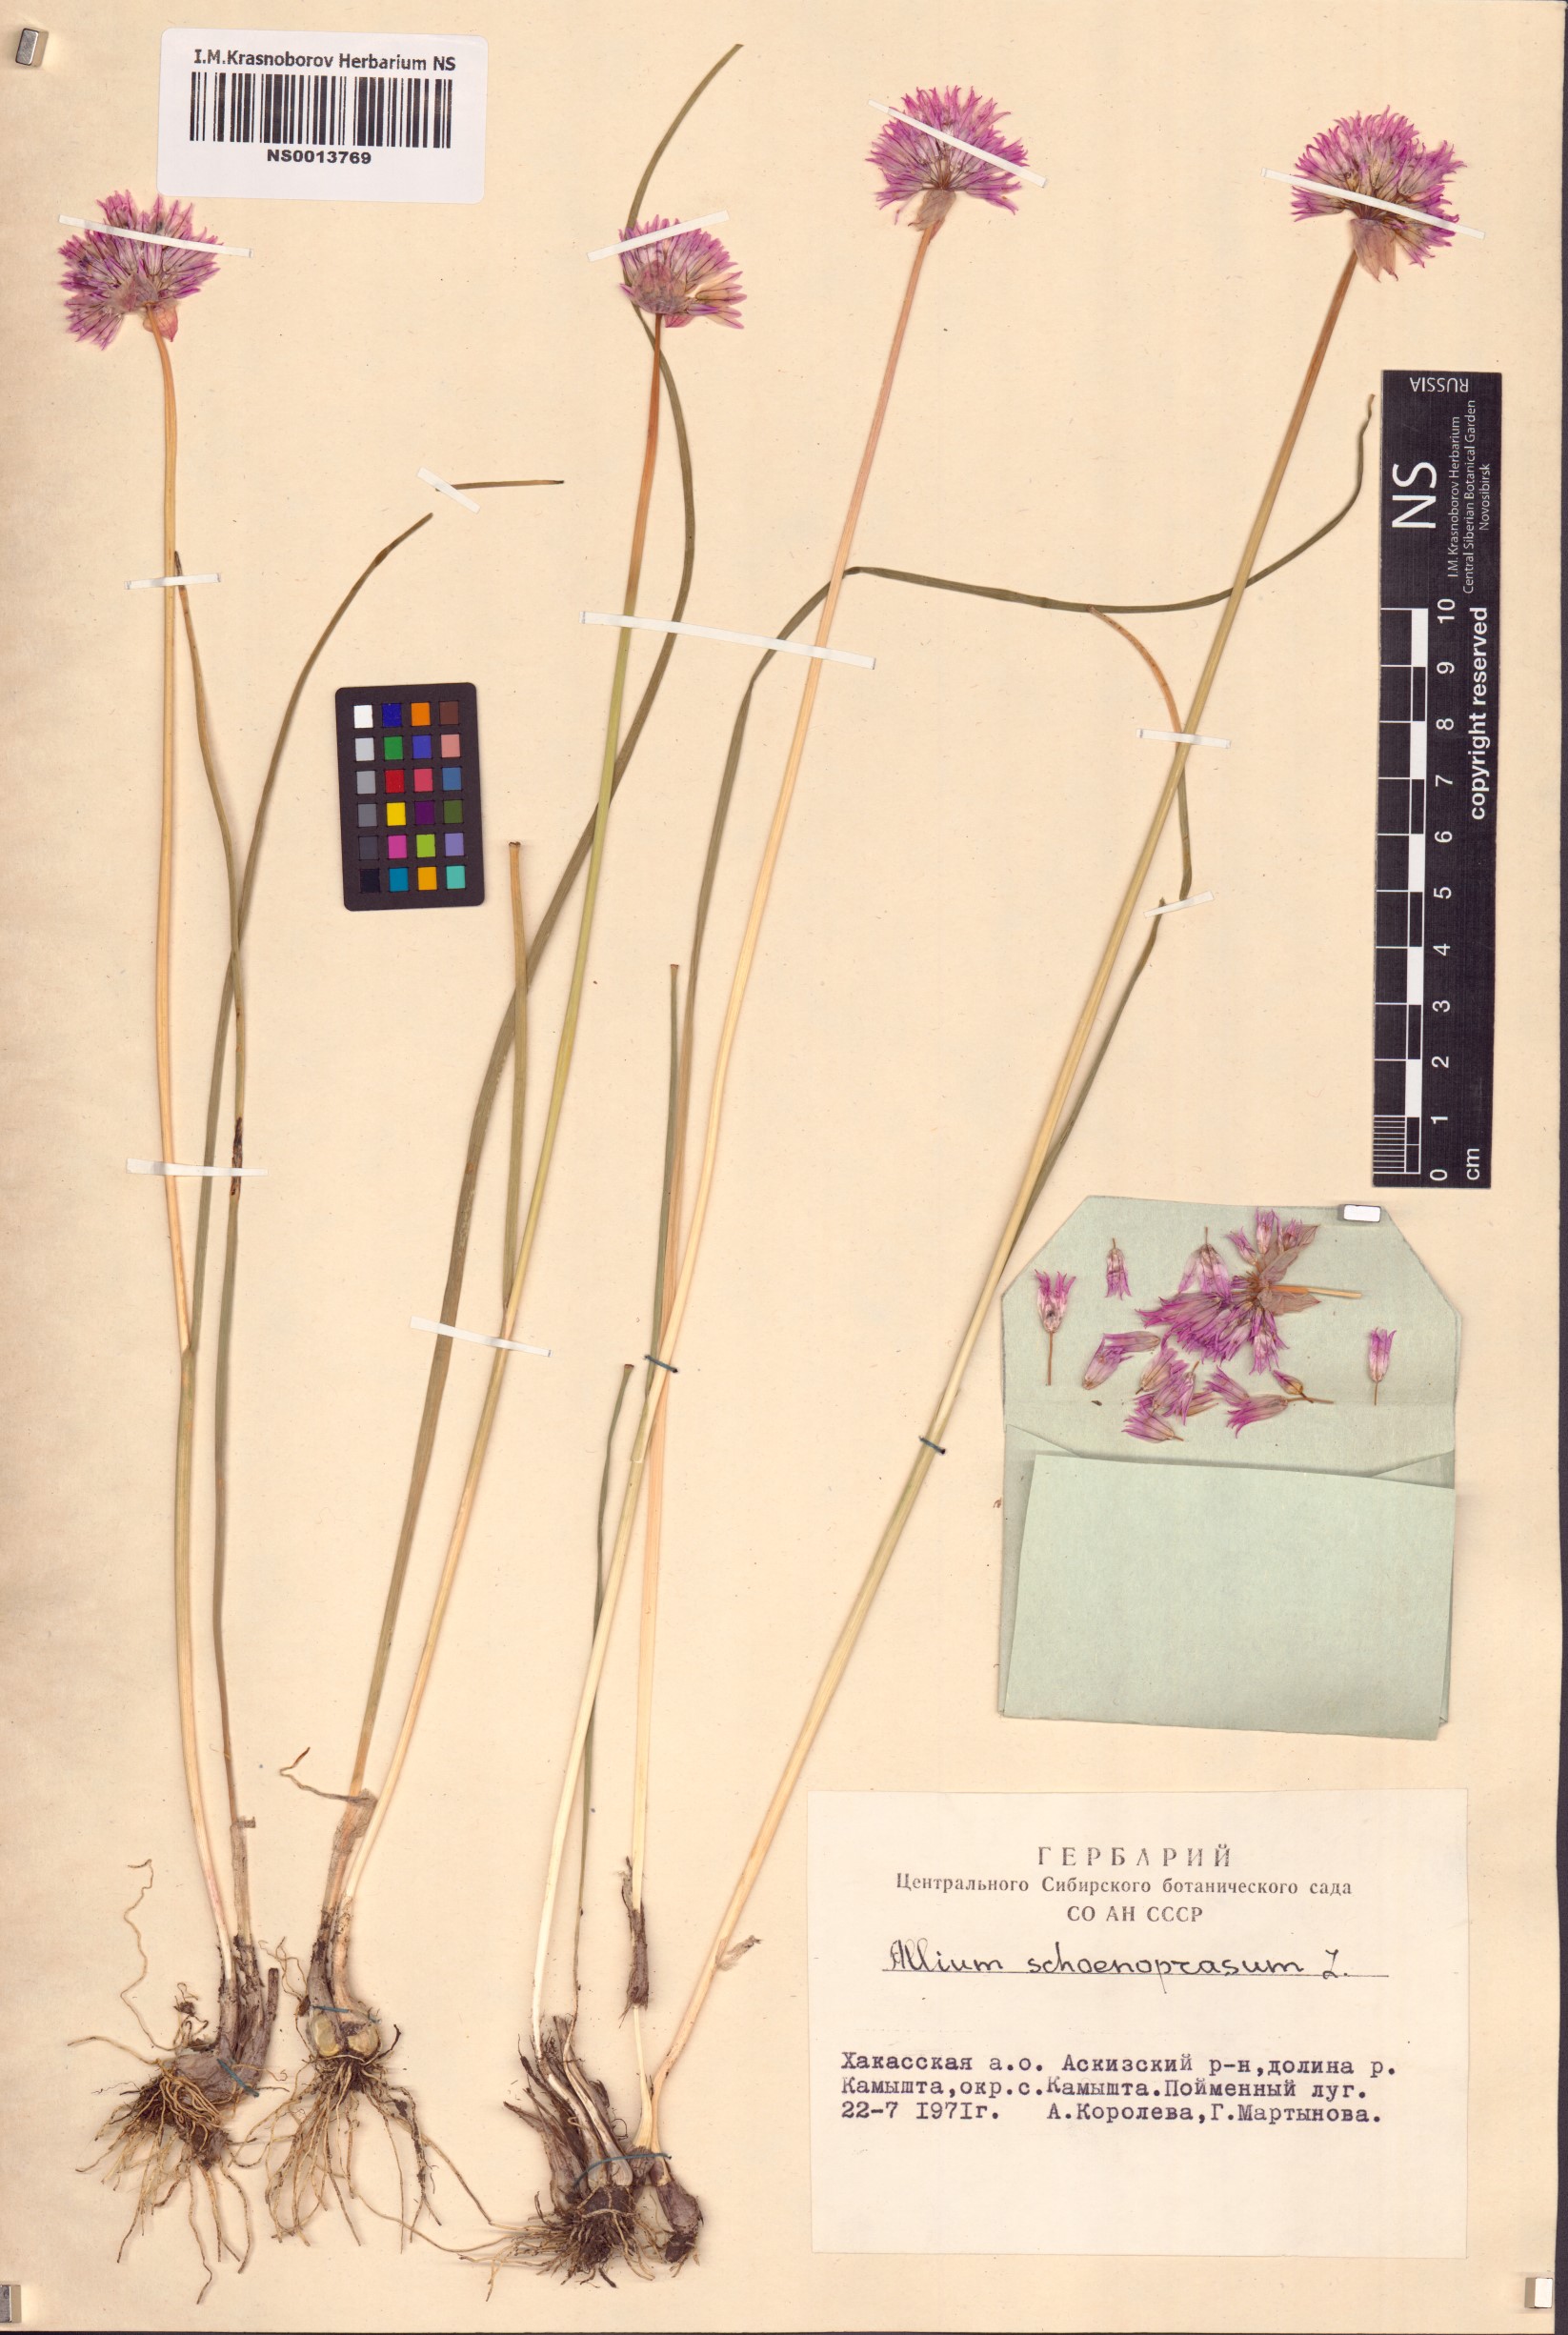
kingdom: Plantae
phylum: Tracheophyta
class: Liliopsida
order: Asparagales
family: Amaryllidaceae
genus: Allium
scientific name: Allium schoenoprasum
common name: Chives
